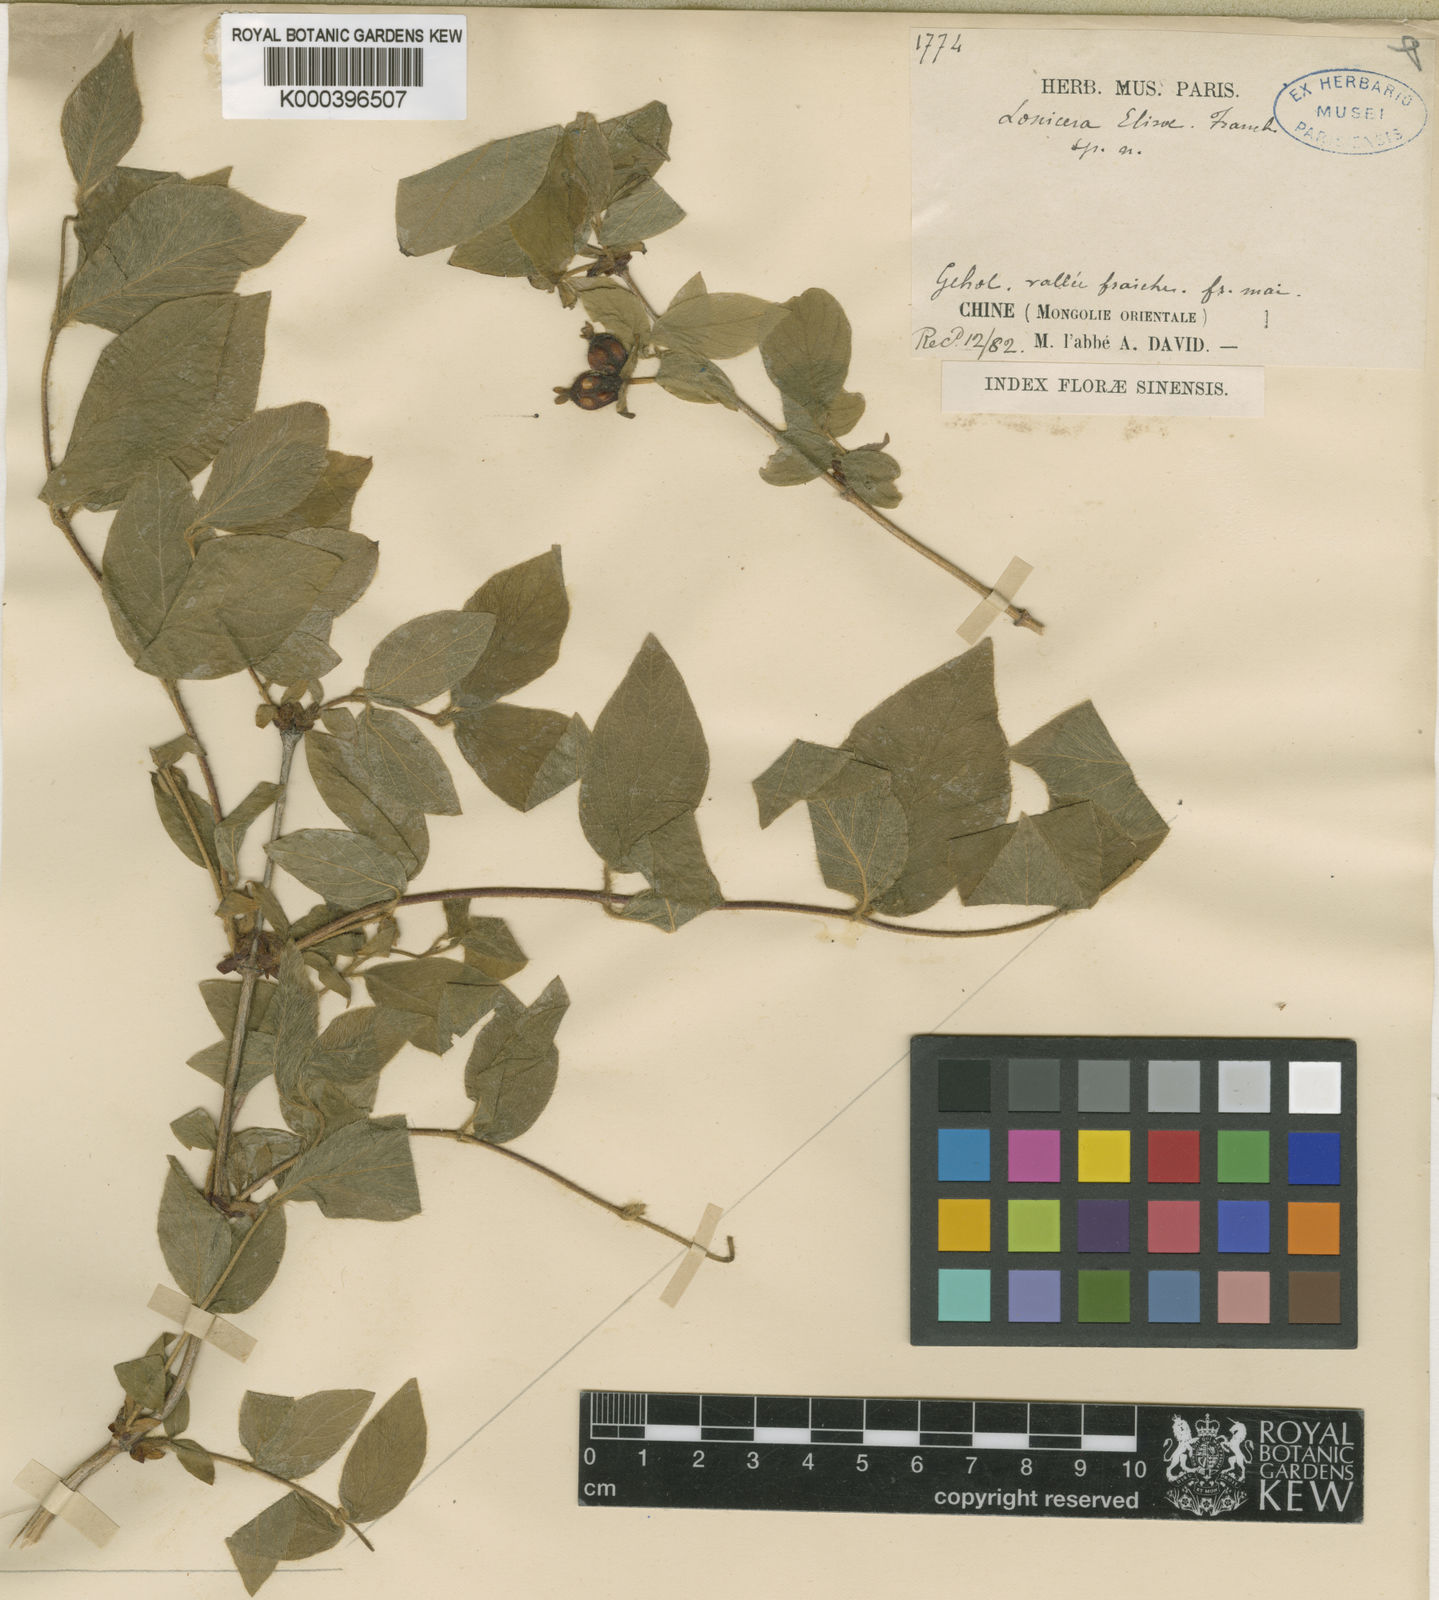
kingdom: Plantae
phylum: Tracheophyta
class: Magnoliopsida
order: Dipsacales
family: Caprifoliaceae
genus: Lonicera
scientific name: Lonicera elisae
